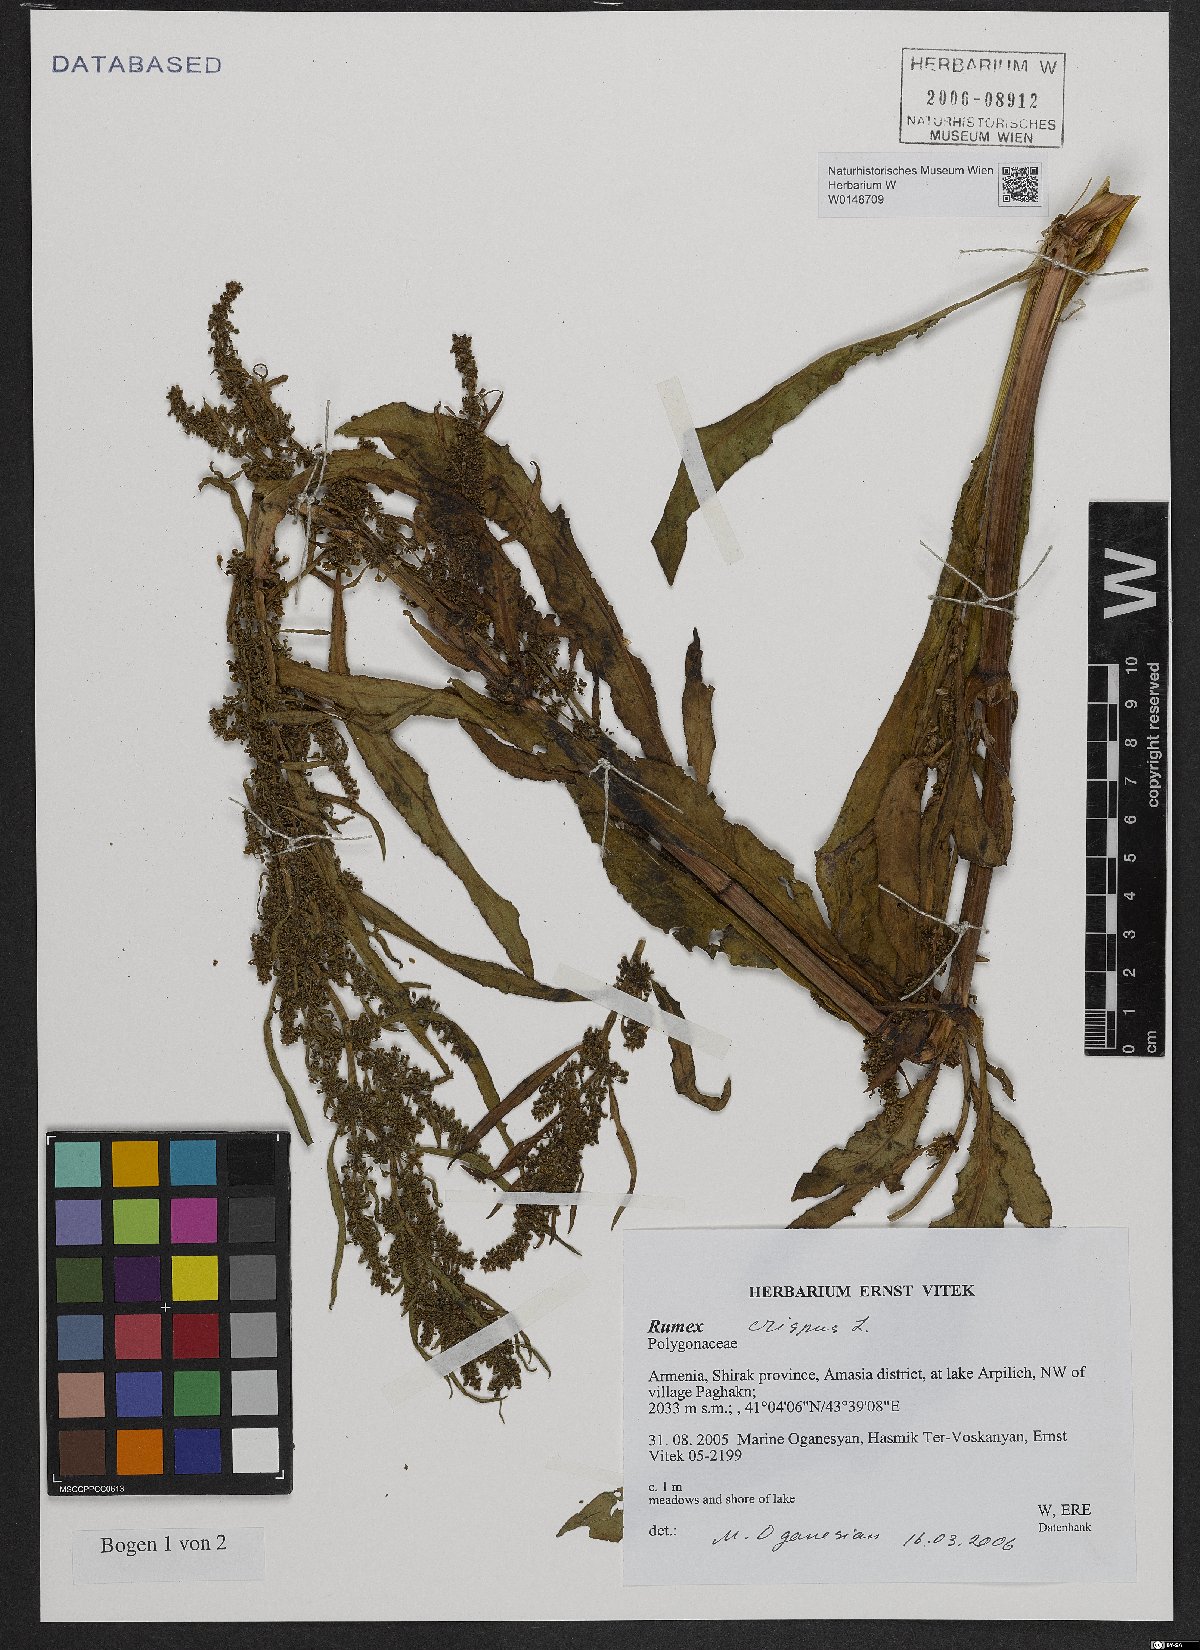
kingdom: Plantae
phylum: Tracheophyta
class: Magnoliopsida
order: Caryophyllales
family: Polygonaceae
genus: Rumex
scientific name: Rumex crispus
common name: Curled dock
